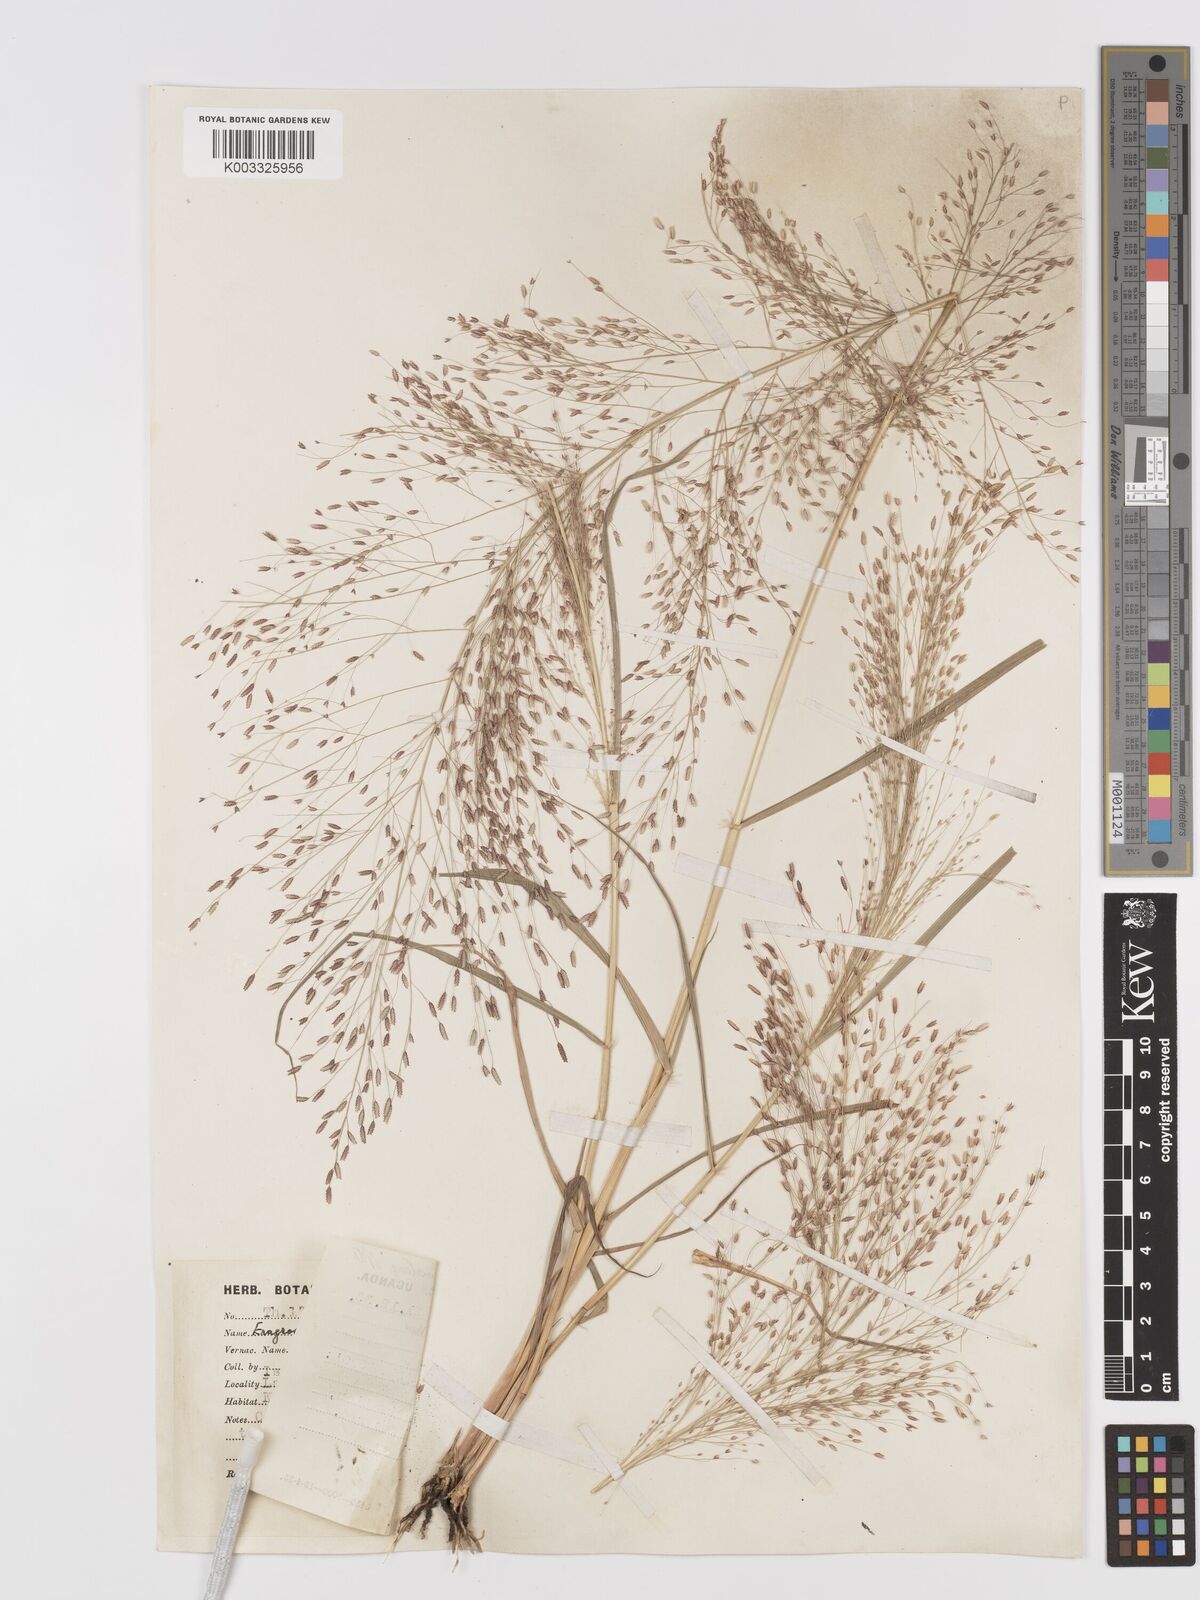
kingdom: Plantae
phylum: Tracheophyta
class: Liliopsida
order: Poales
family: Poaceae
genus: Eragrostis
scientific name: Eragrostis aspera
